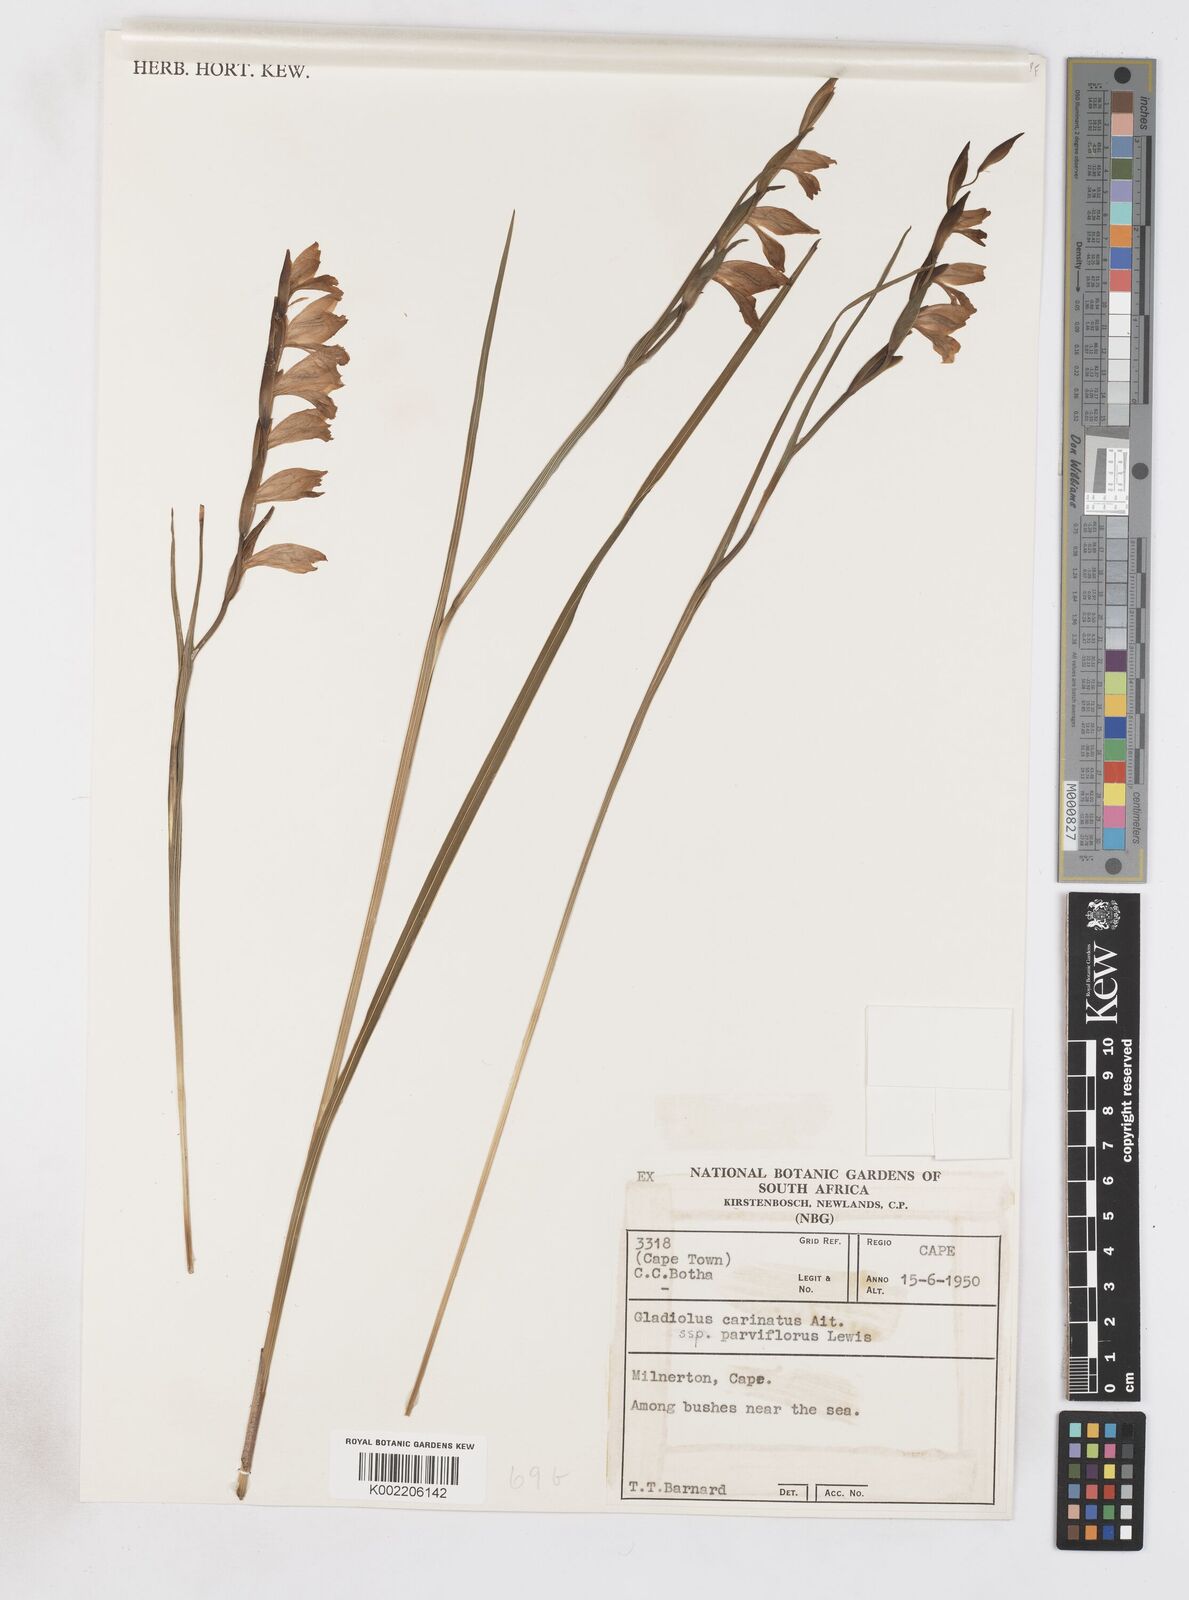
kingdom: Plantae
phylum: Tracheophyta
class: Liliopsida
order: Asparagales
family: Iridaceae
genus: Gladiolus
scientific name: Gladiolus griseus
